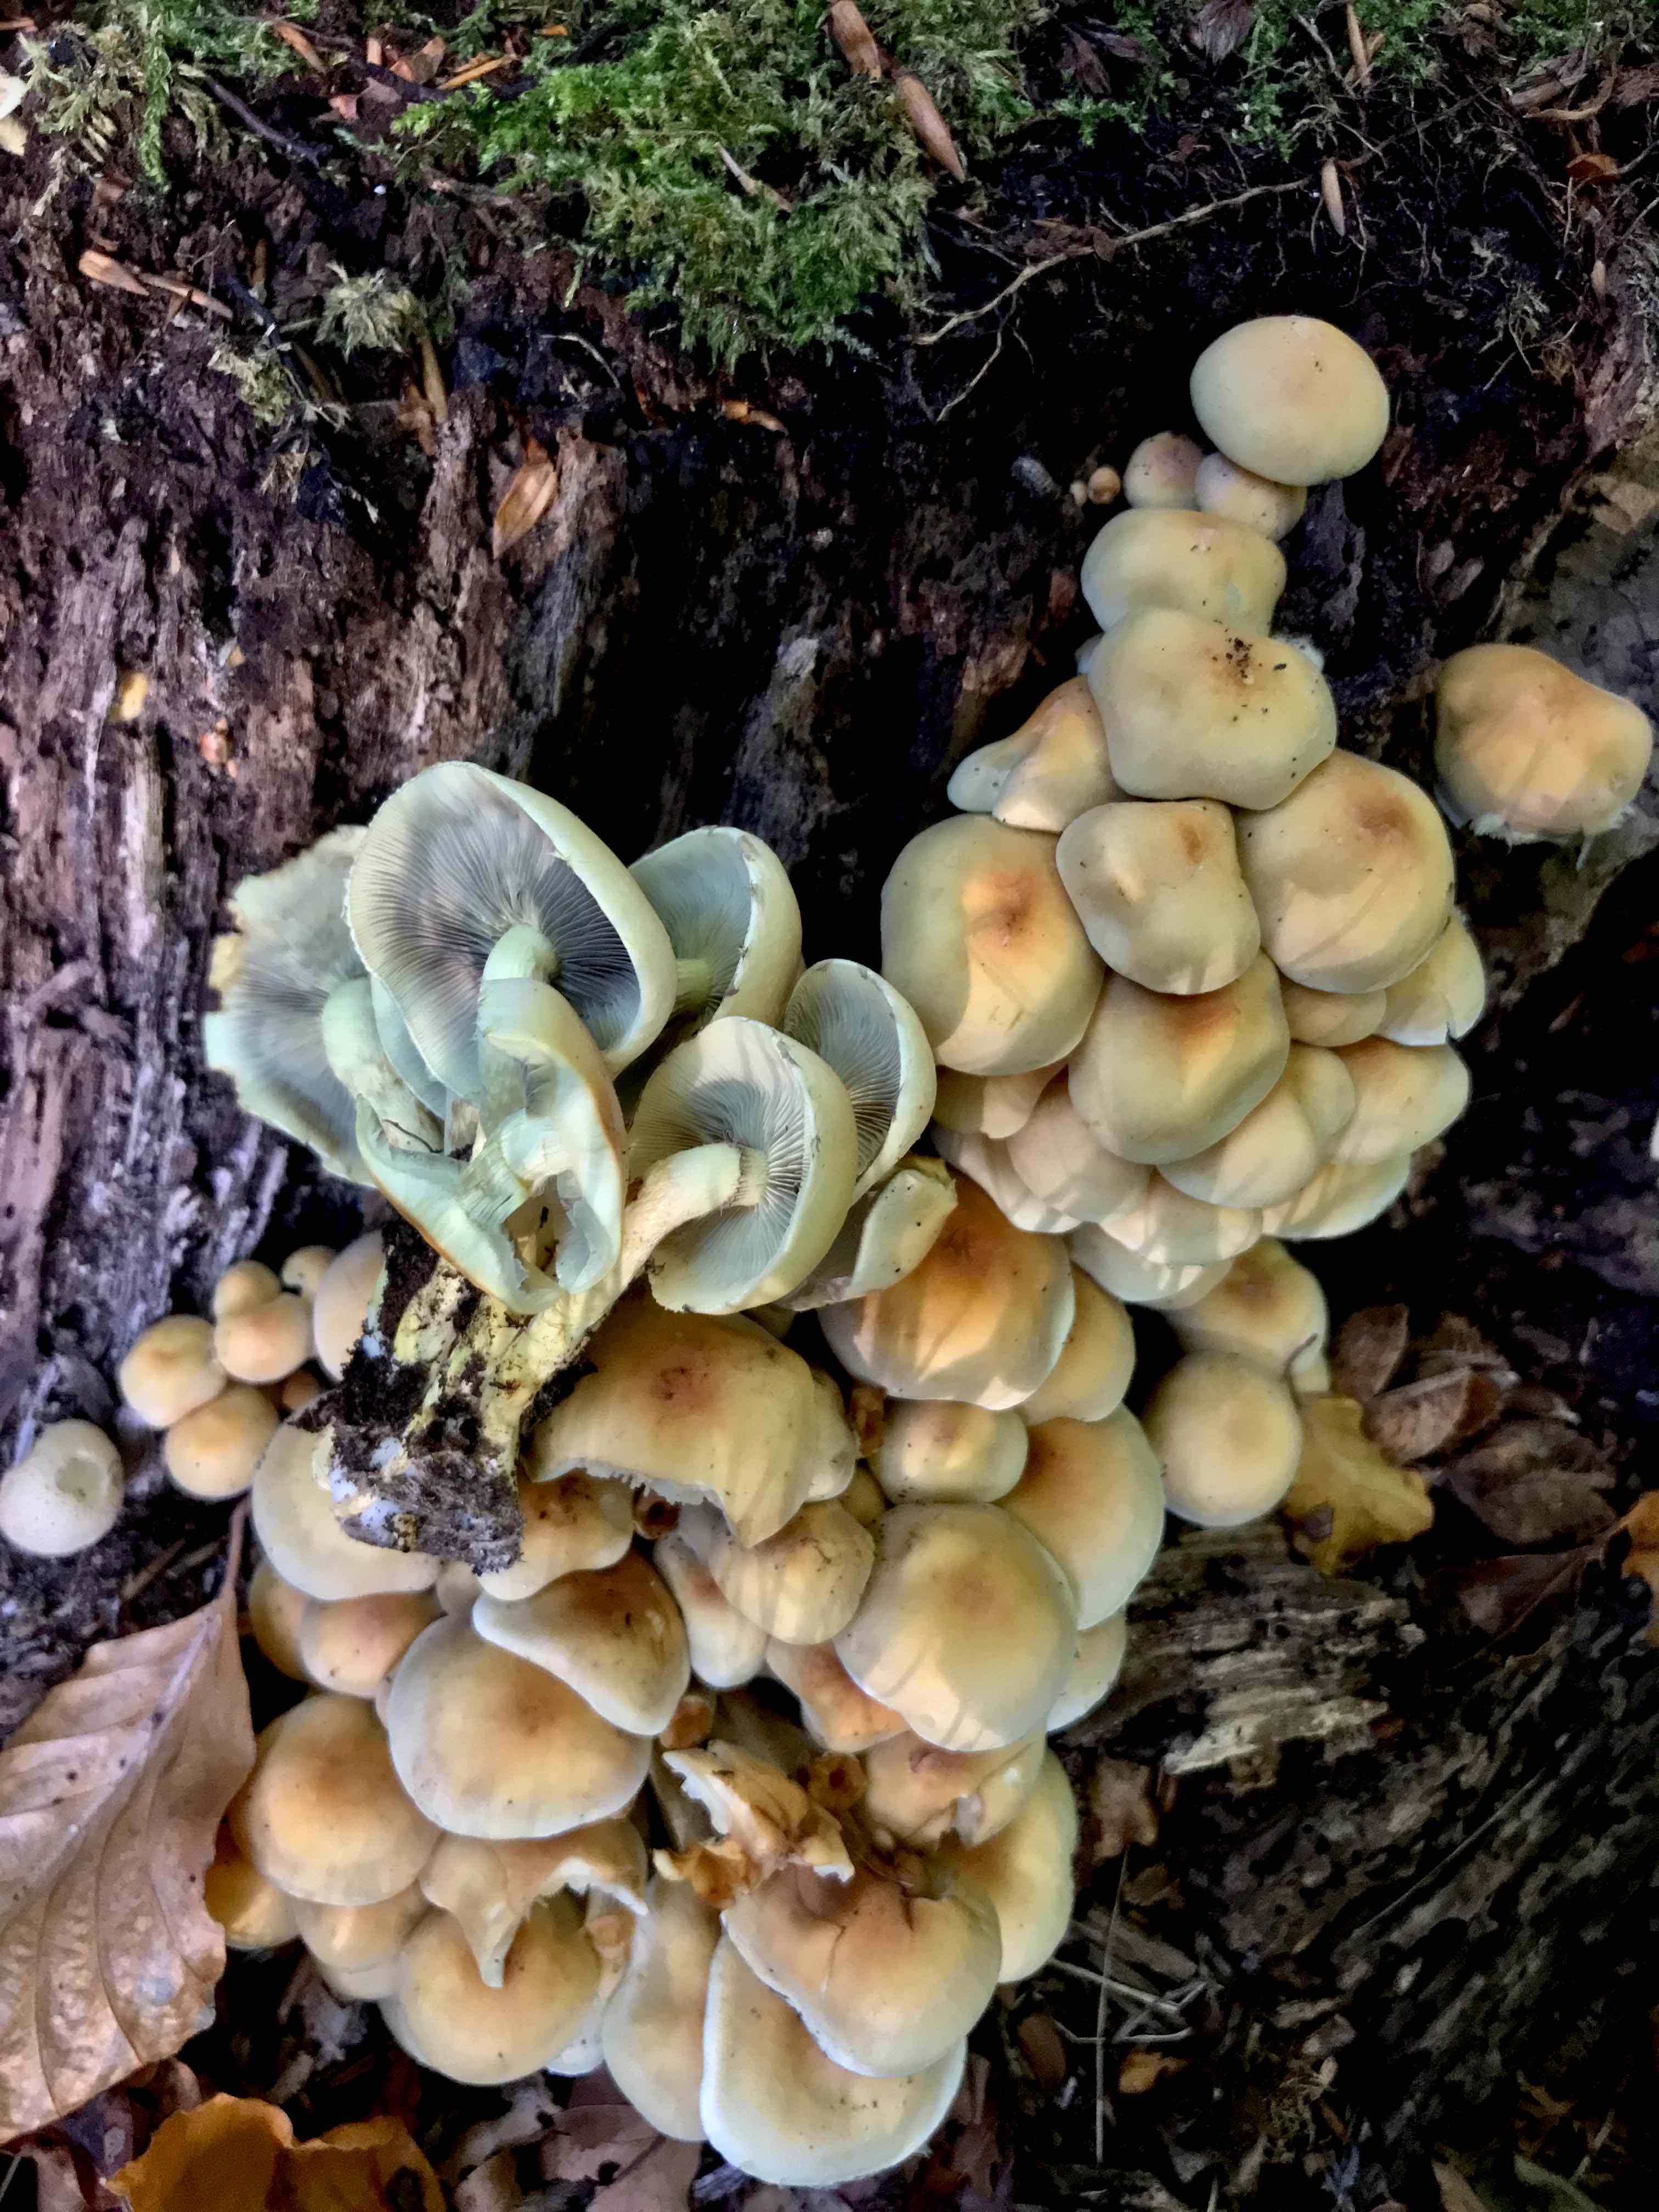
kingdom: Fungi
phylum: Basidiomycota
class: Agaricomycetes
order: Agaricales
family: Strophariaceae
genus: Hypholoma
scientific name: Hypholoma fasciculare
